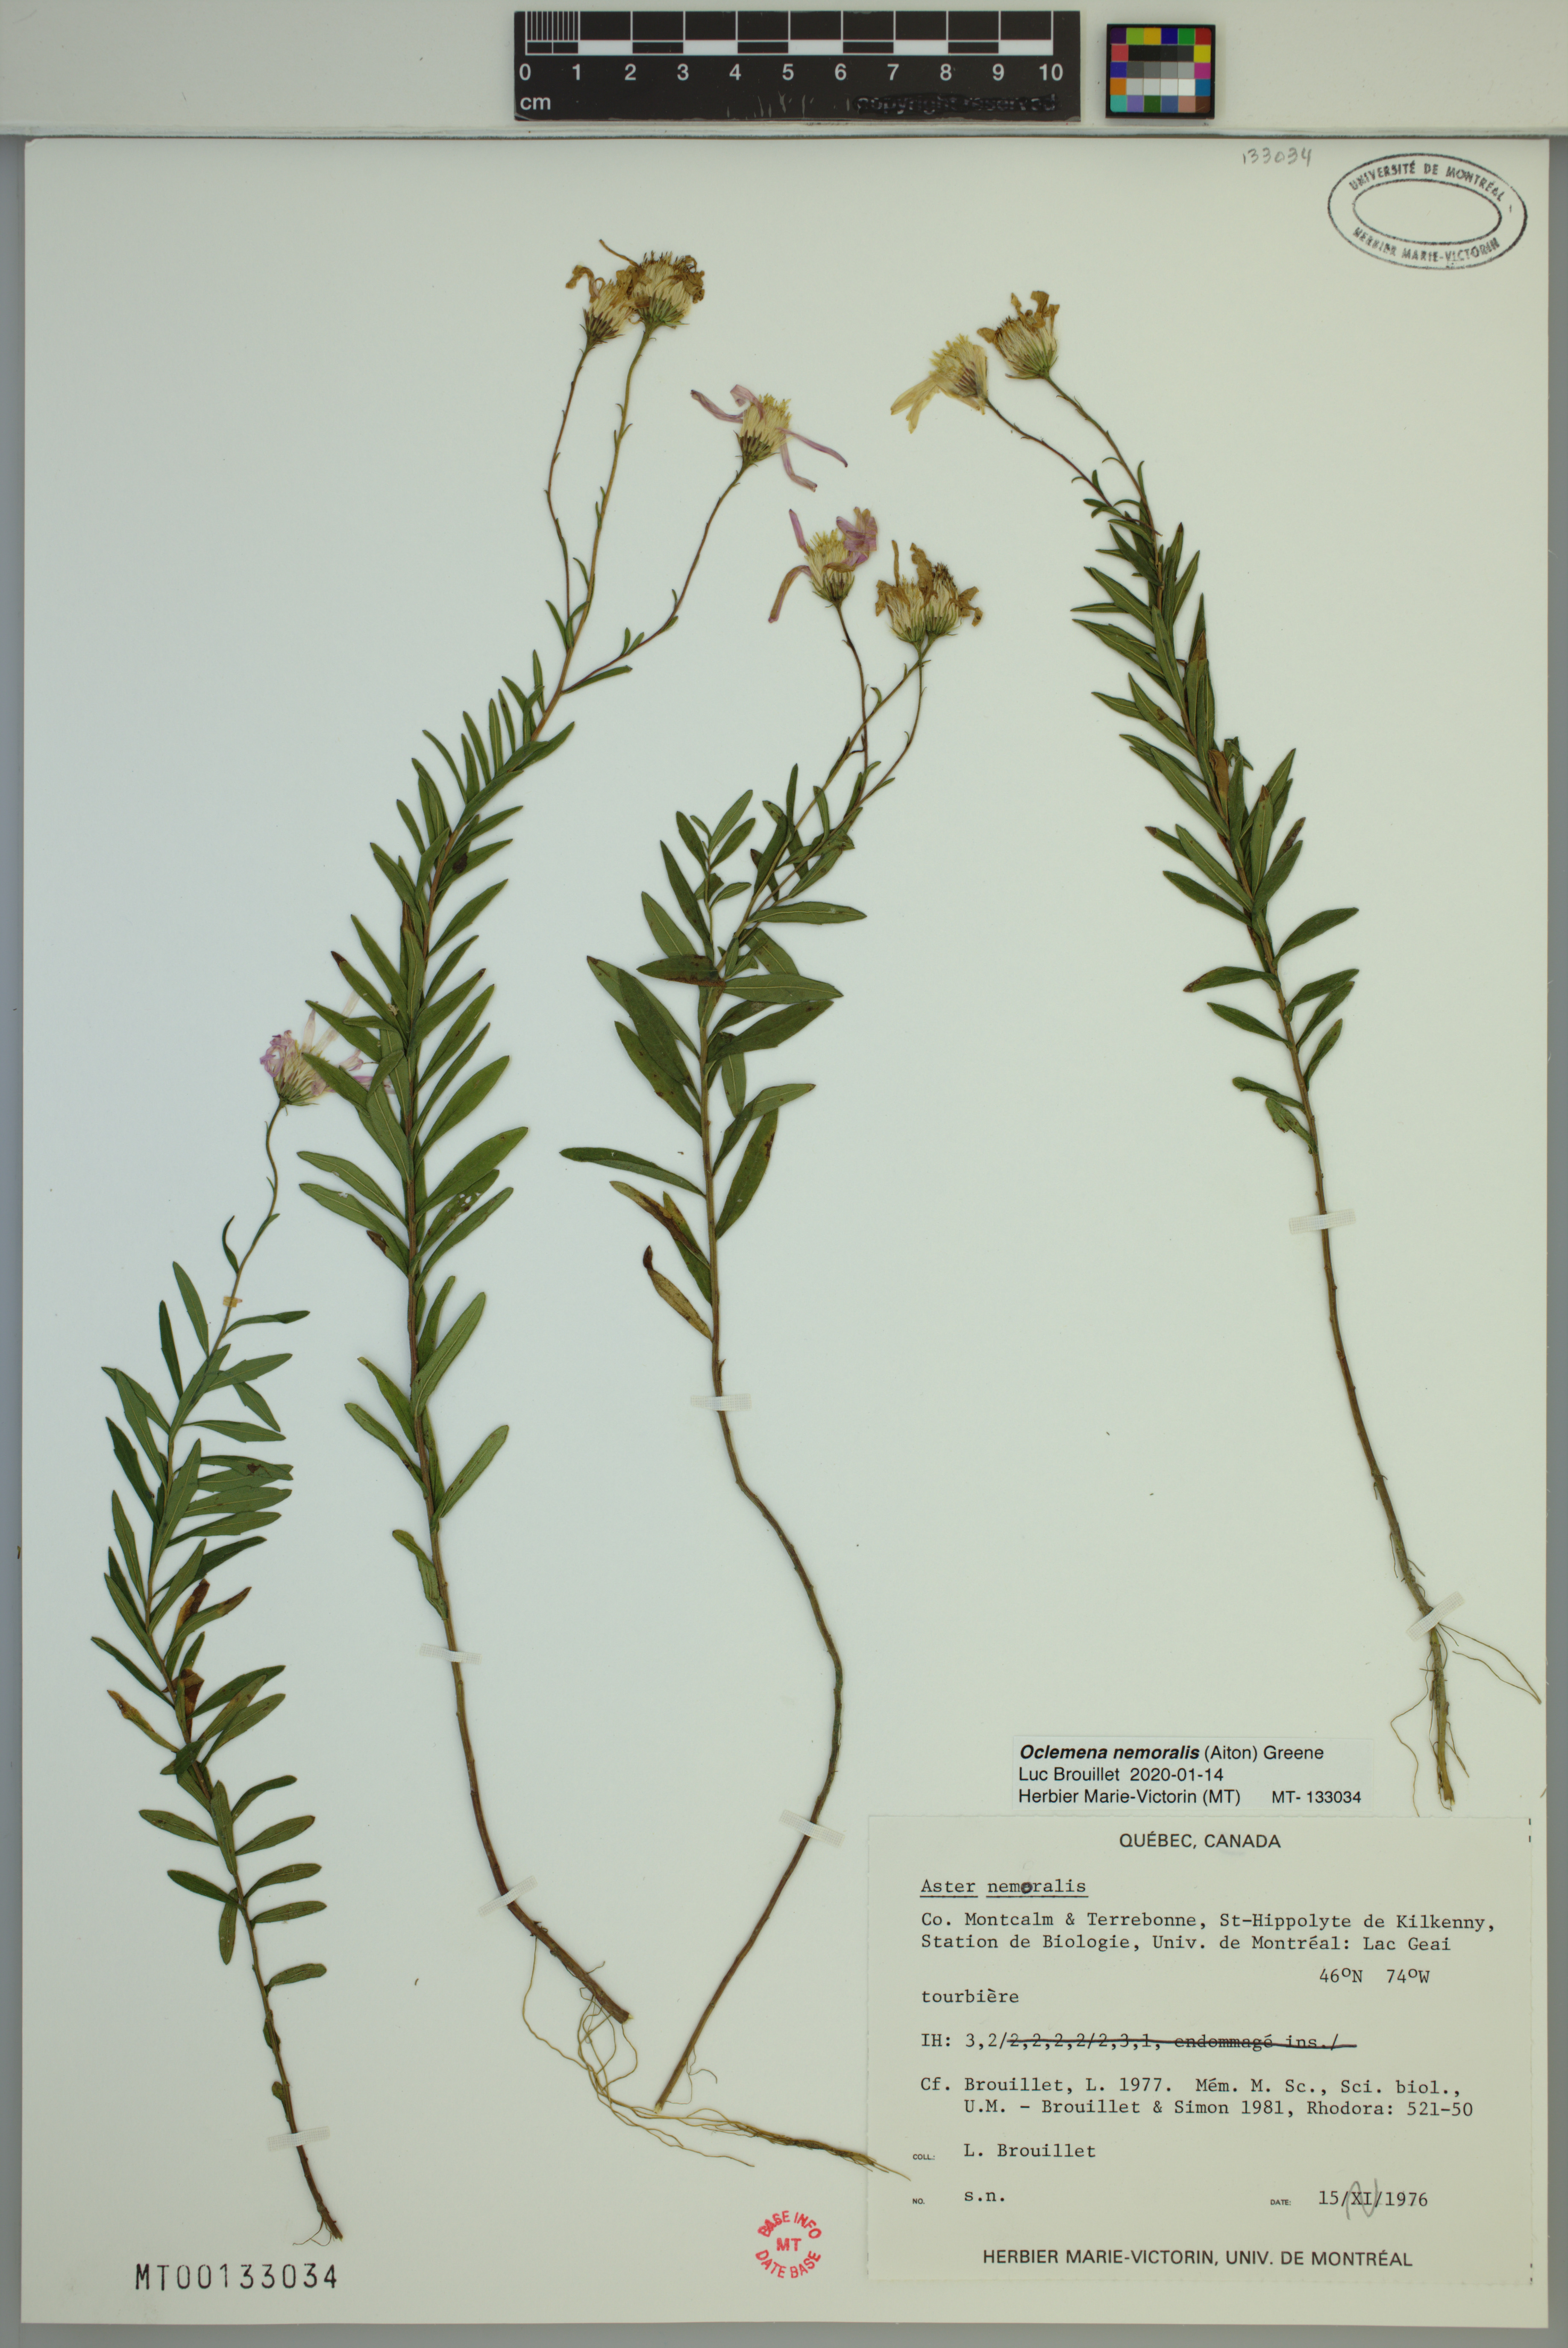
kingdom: Plantae
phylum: Tracheophyta
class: Magnoliopsida
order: Asterales
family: Asteraceae
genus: Oclemena
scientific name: Oclemena nemoralis
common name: Bog aster
